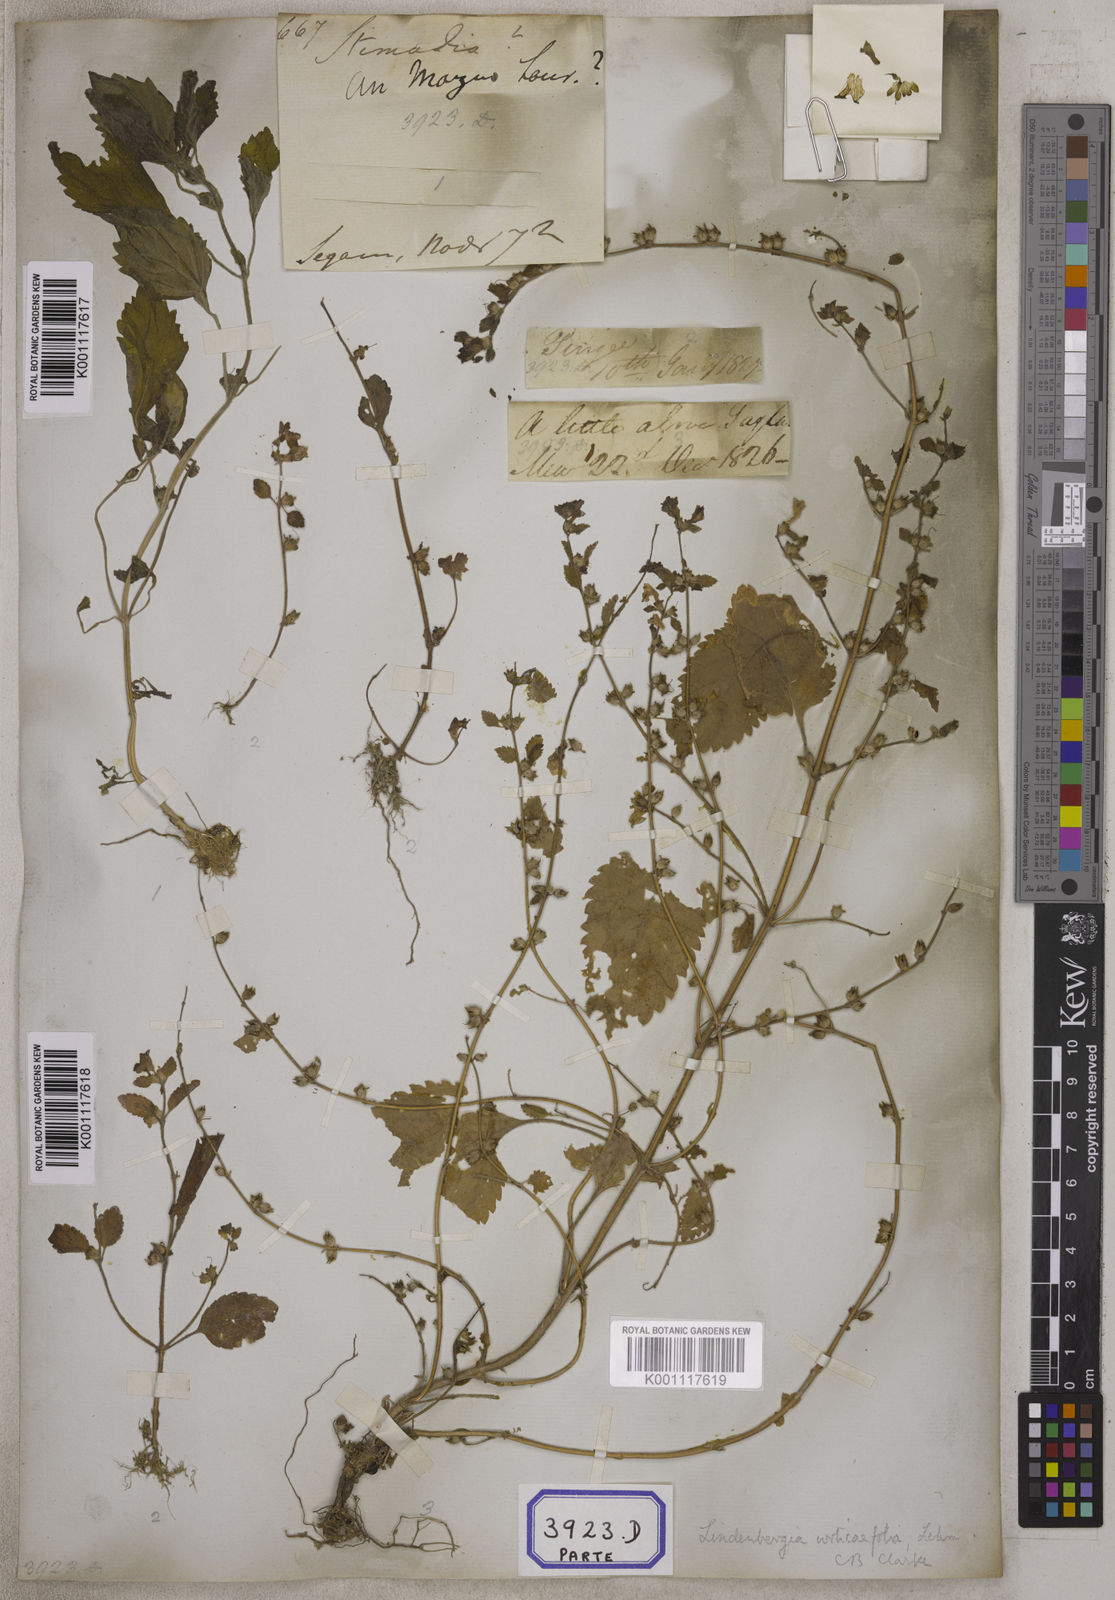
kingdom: Plantae
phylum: Tracheophyta
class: Magnoliopsida
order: Lamiales
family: Orobanchaceae
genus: Lindenbergia
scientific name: Lindenbergia muraria
